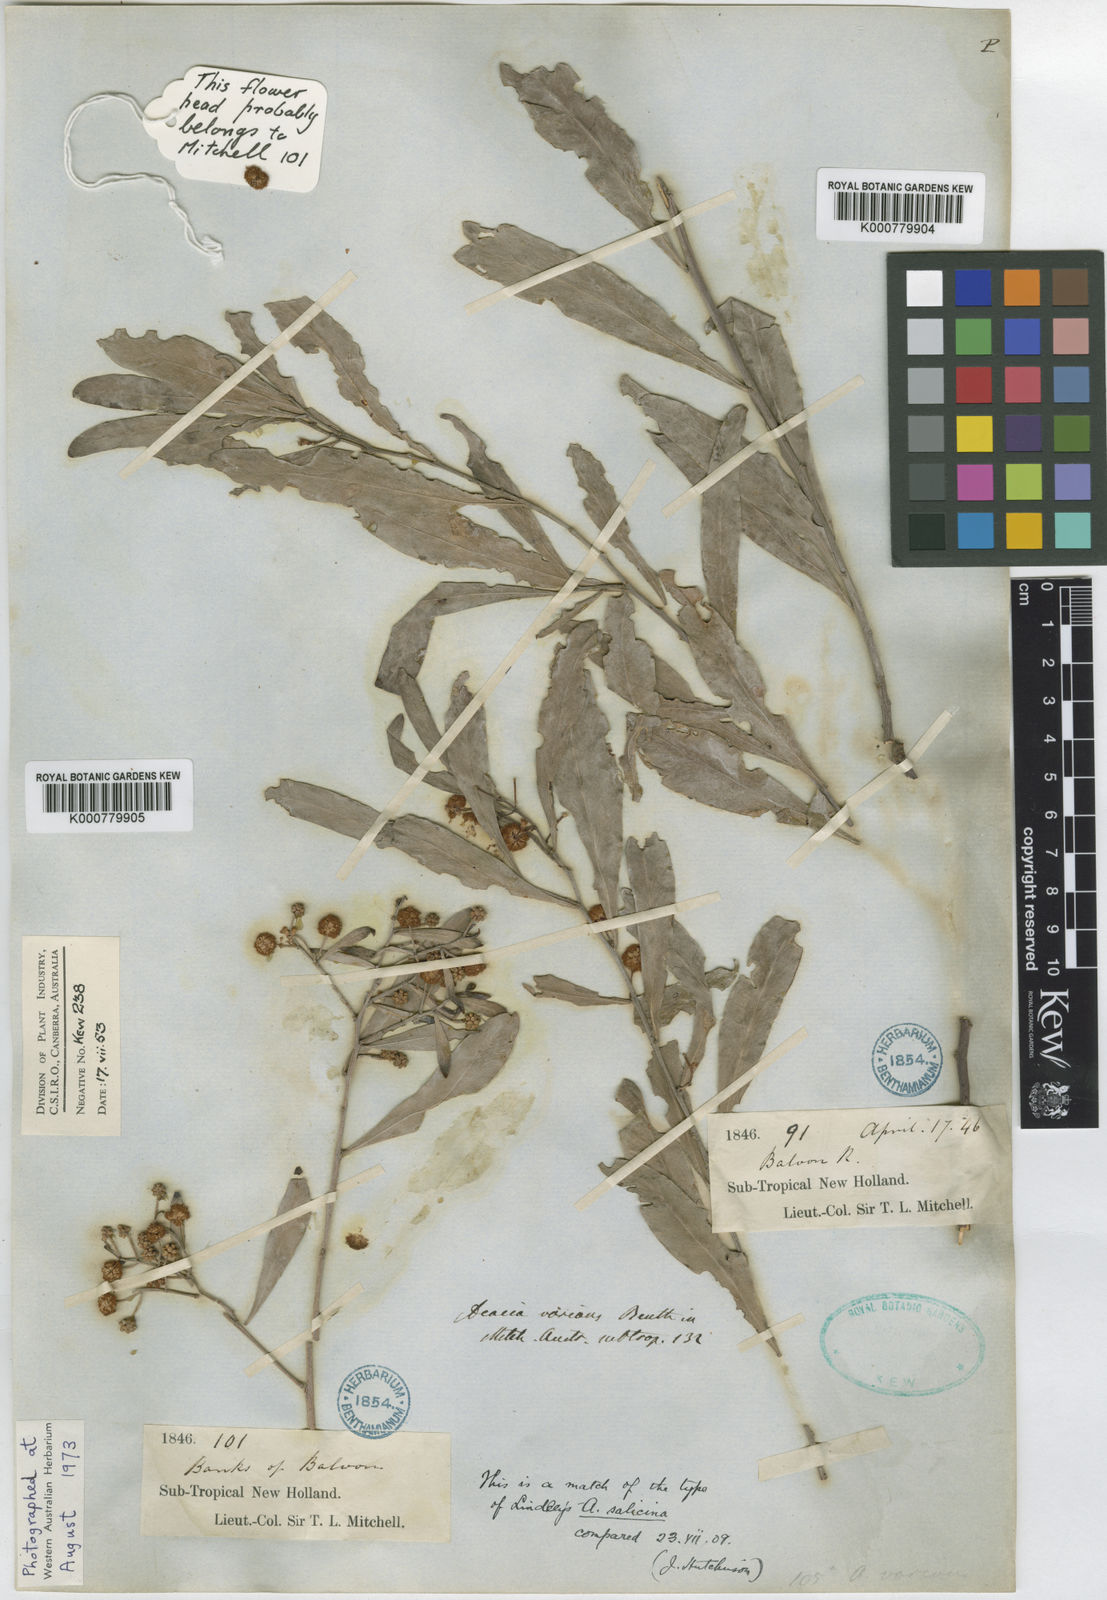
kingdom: Plantae
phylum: Tracheophyta
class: Magnoliopsida
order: Fabales
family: Fabaceae
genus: Acacia
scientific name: Acacia salicina
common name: Broughton willow wattle
